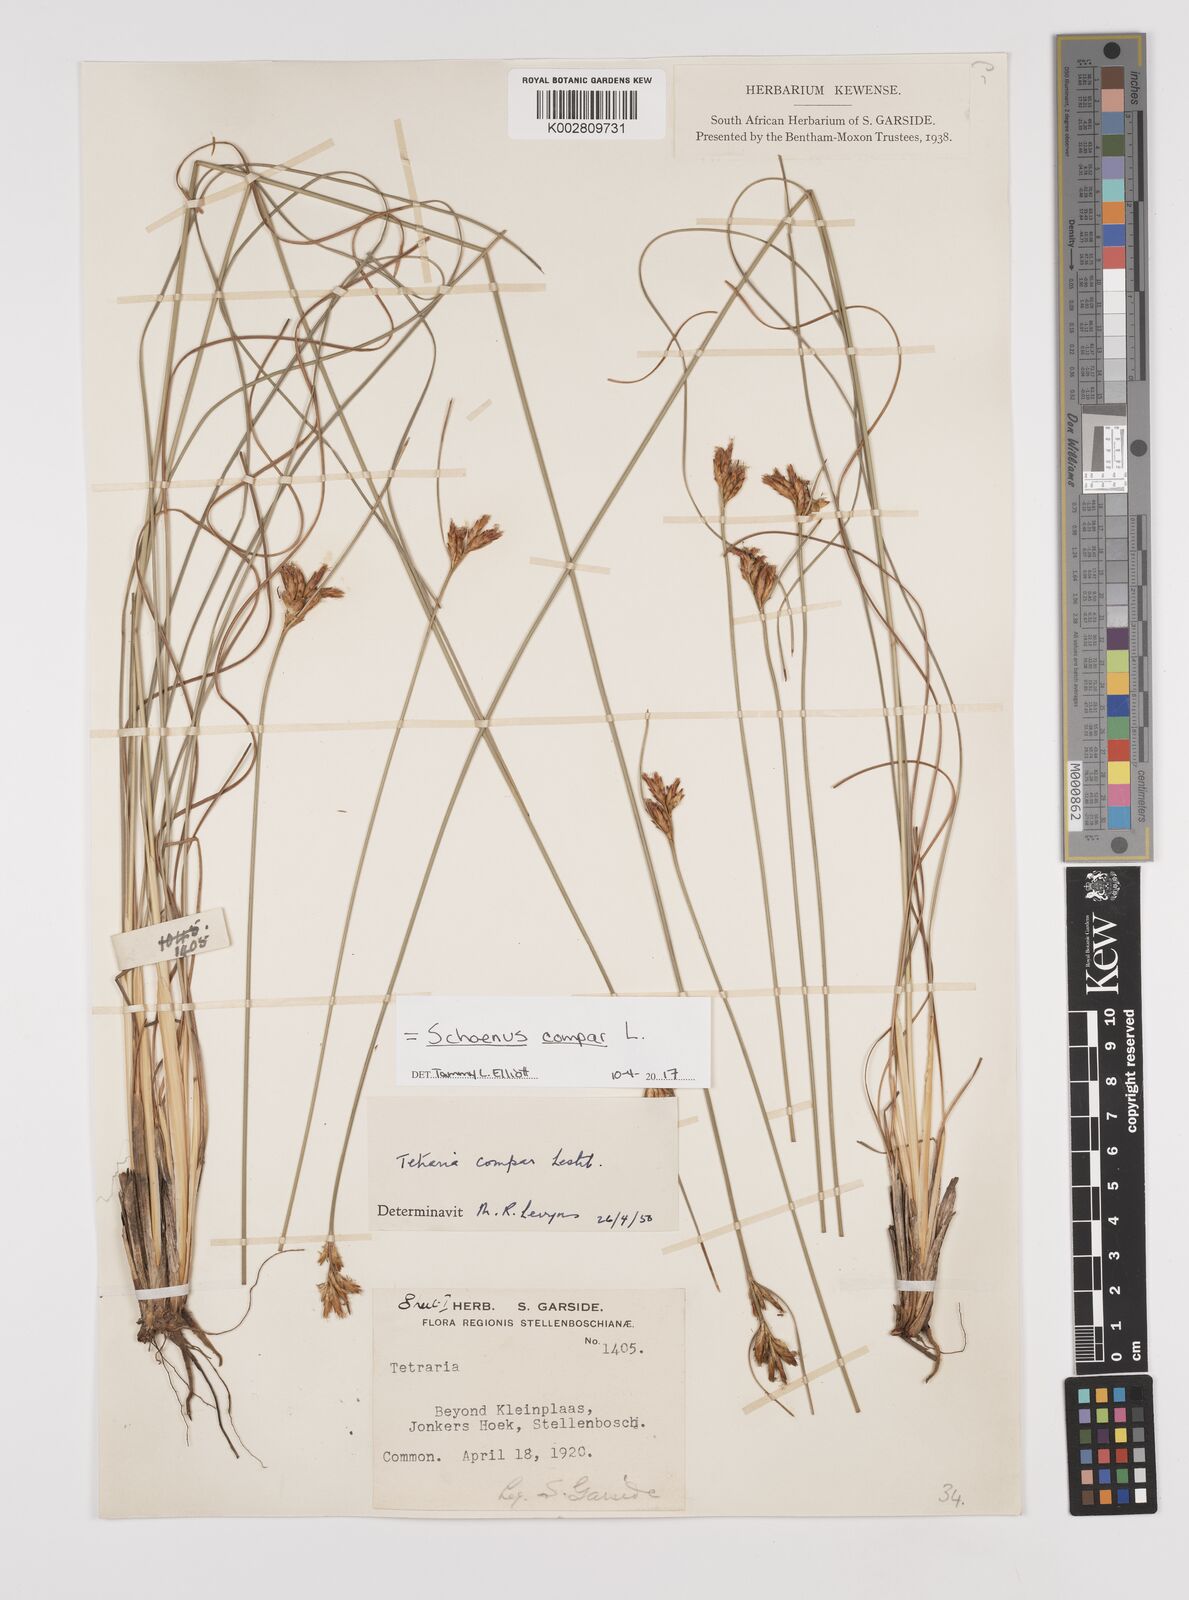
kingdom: Plantae
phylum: Tracheophyta
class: Liliopsida
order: Poales
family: Cyperaceae
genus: Schoenus
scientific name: Schoenus compar
